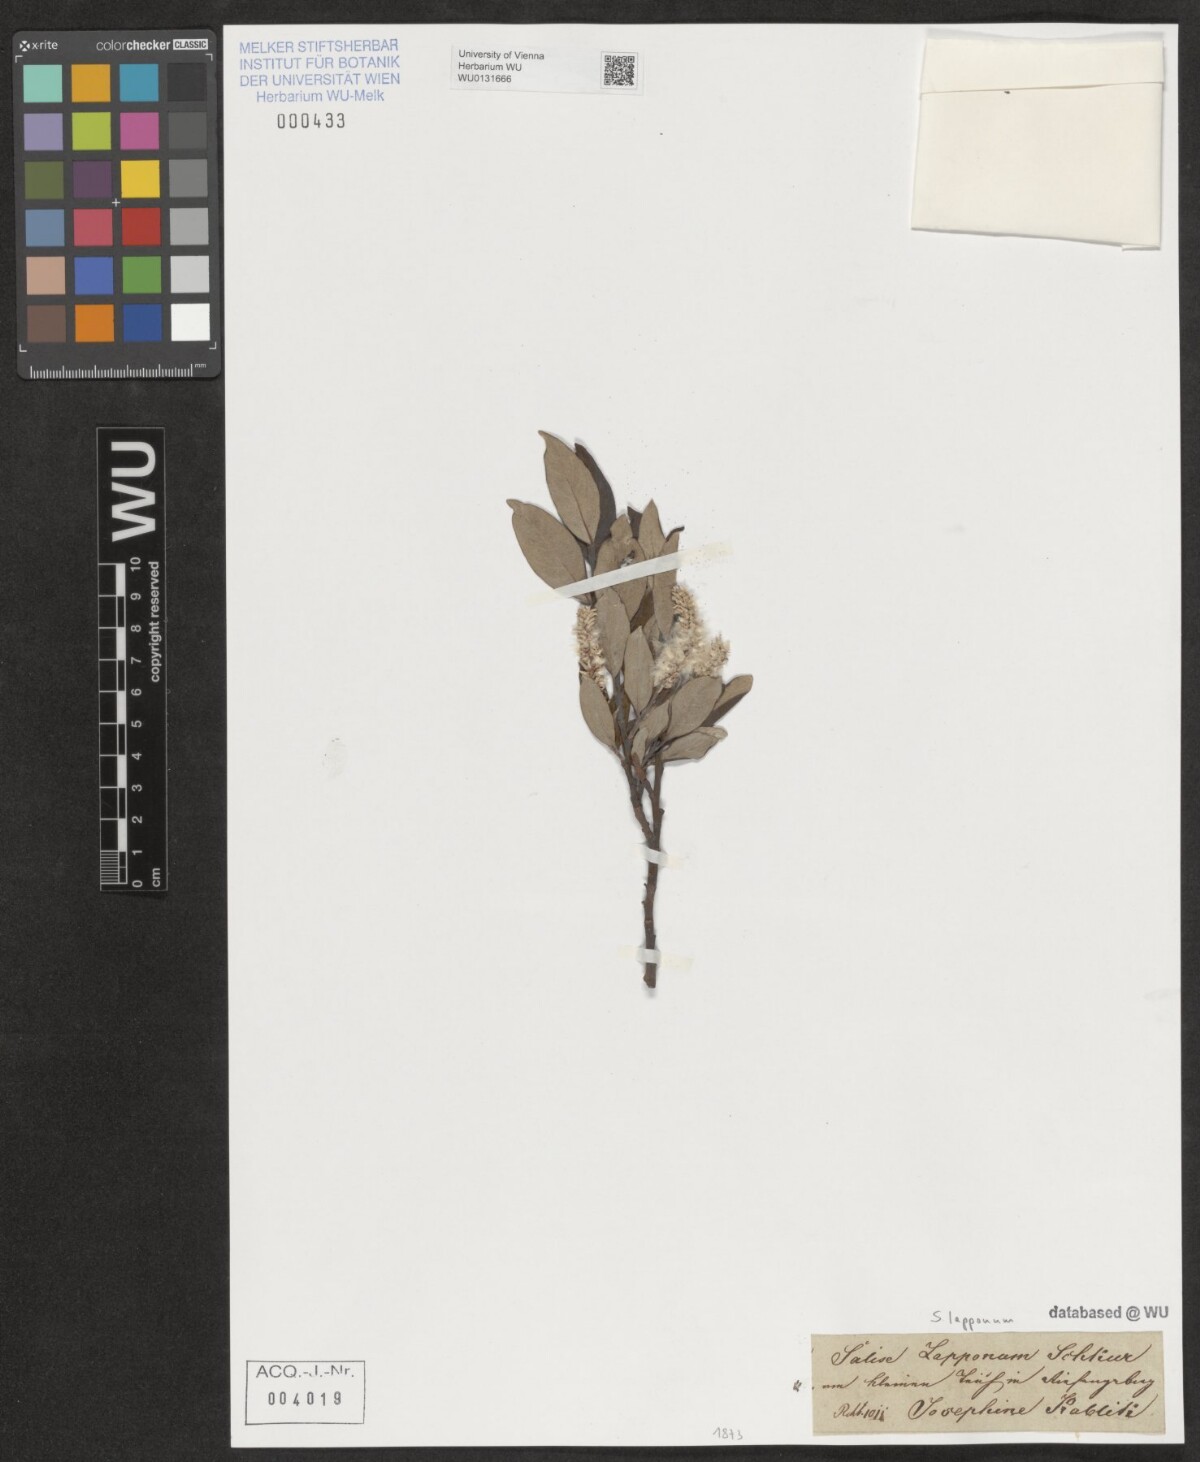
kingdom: Plantae
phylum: Tracheophyta
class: Magnoliopsida
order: Malpighiales
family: Salicaceae
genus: Salix
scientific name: Salix lapponum
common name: Downy willow
